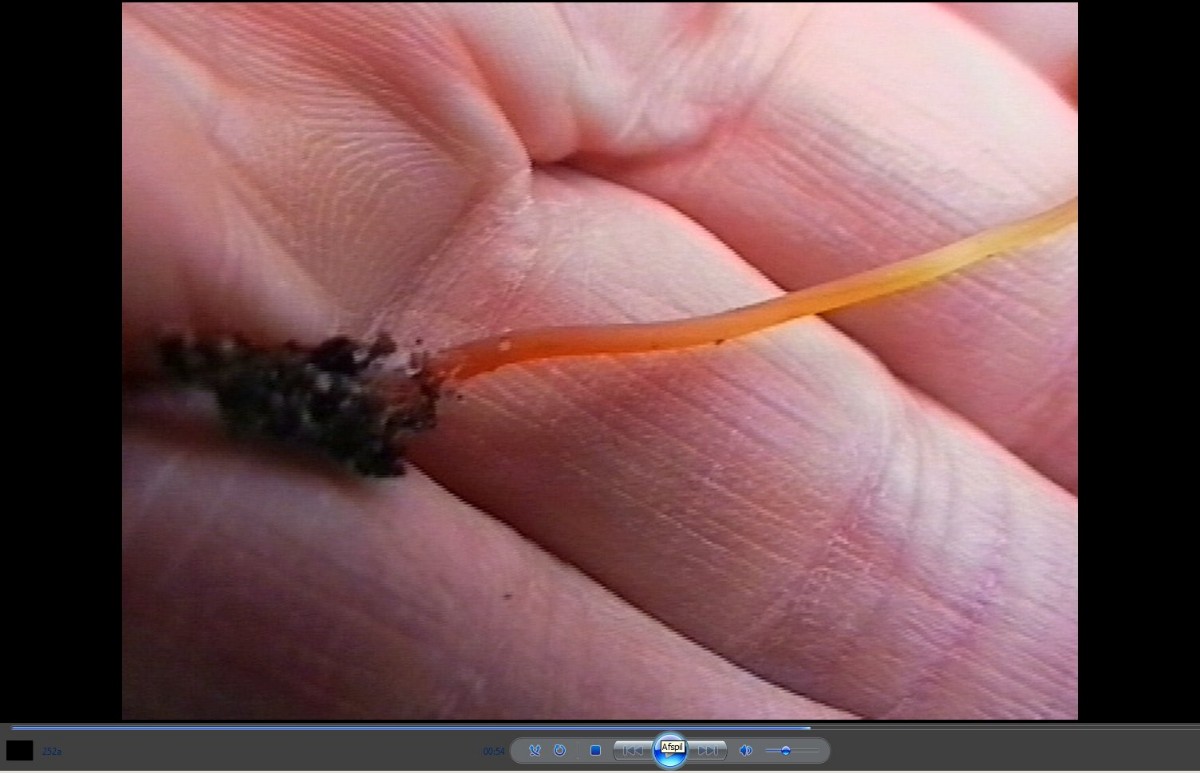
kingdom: Fungi
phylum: Basidiomycota
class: Agaricomycetes
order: Agaricales
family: Mycenaceae
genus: Mycena
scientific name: Mycena crocata
